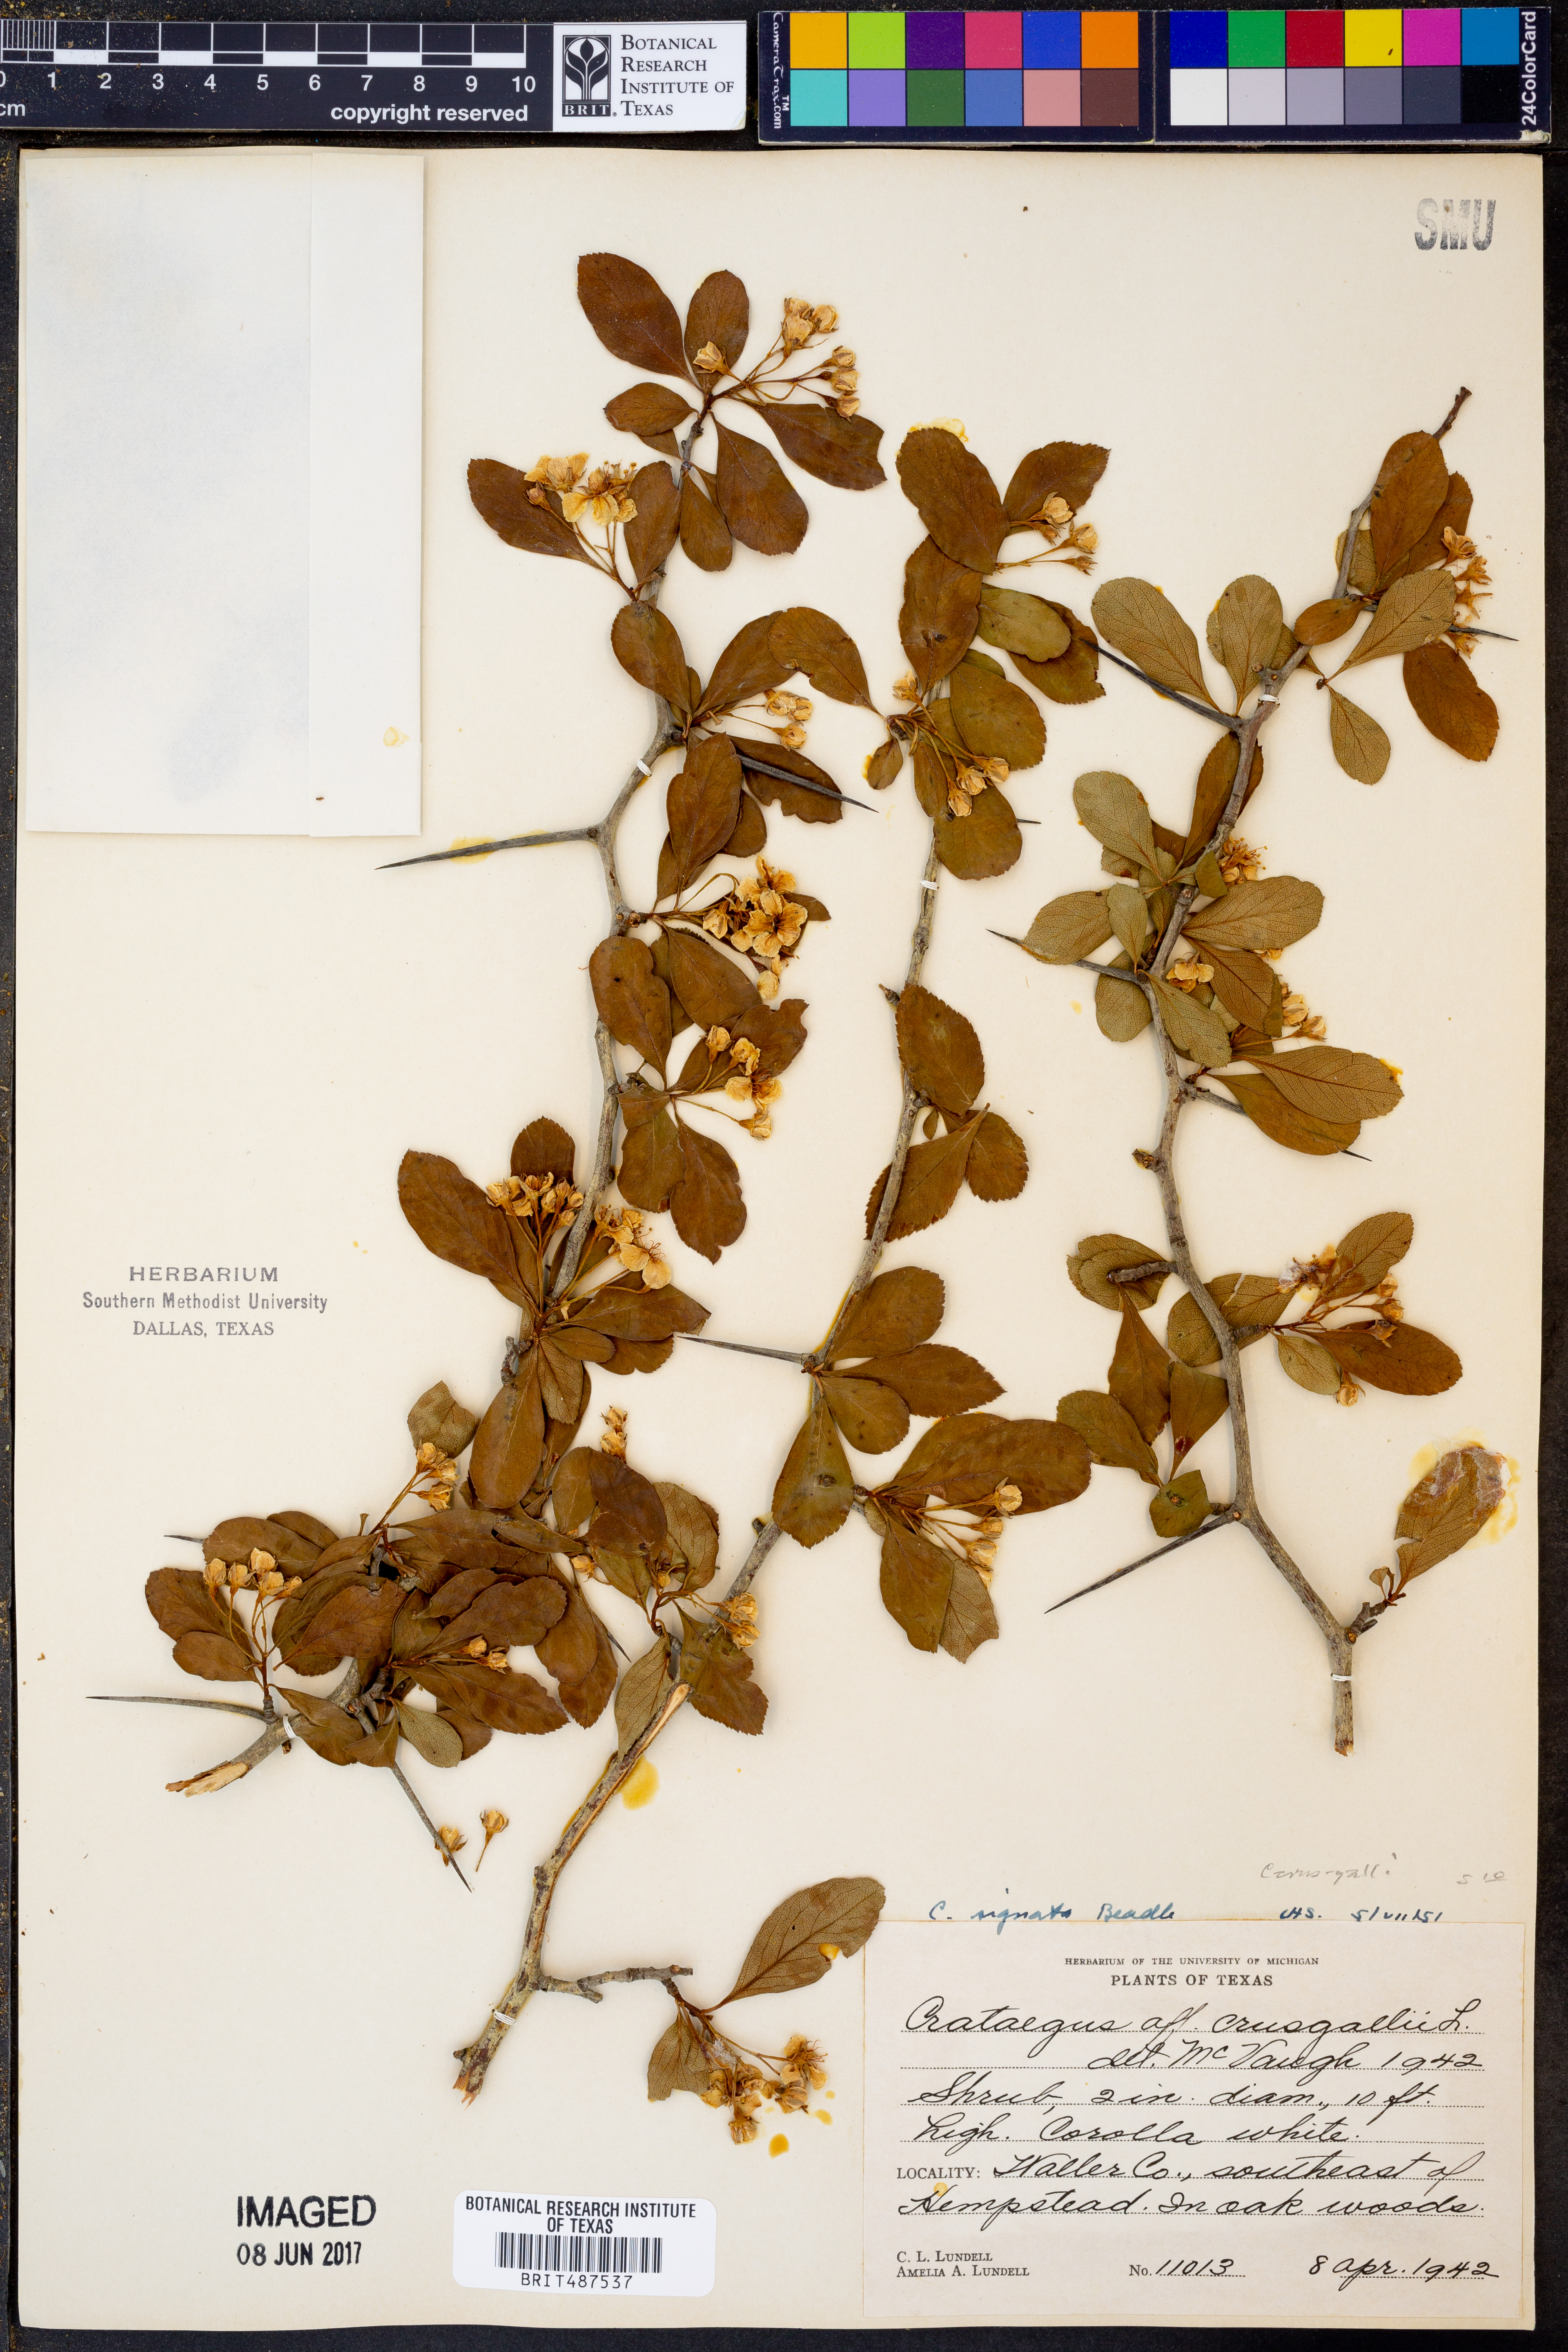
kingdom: Plantae
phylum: Tracheophyta
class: Magnoliopsida
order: Rosales
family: Rosaceae
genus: Crataegus
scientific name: Crataegus crus-galli
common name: Cockspurthorn
